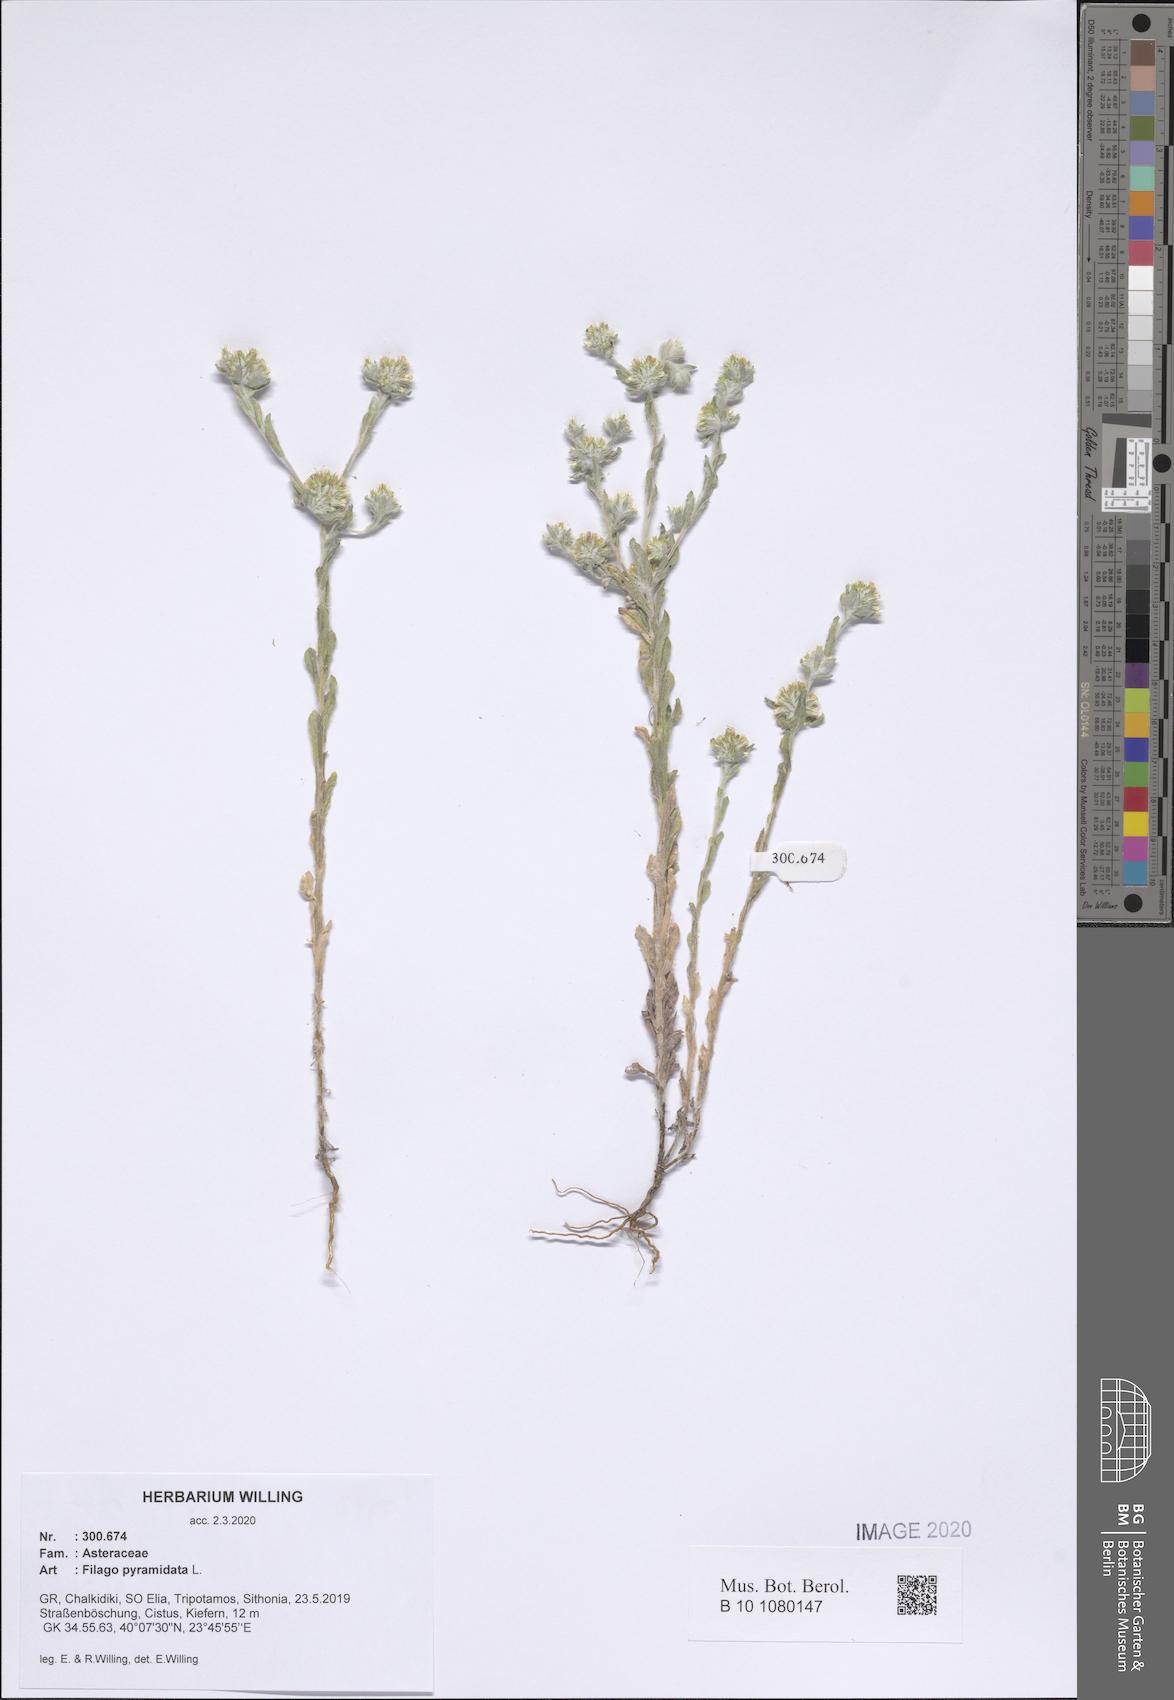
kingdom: Plantae
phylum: Tracheophyta
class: Magnoliopsida
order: Asterales
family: Asteraceae
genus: Filago
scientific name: Filago pyramidata
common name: Broad-leaved cudweed
